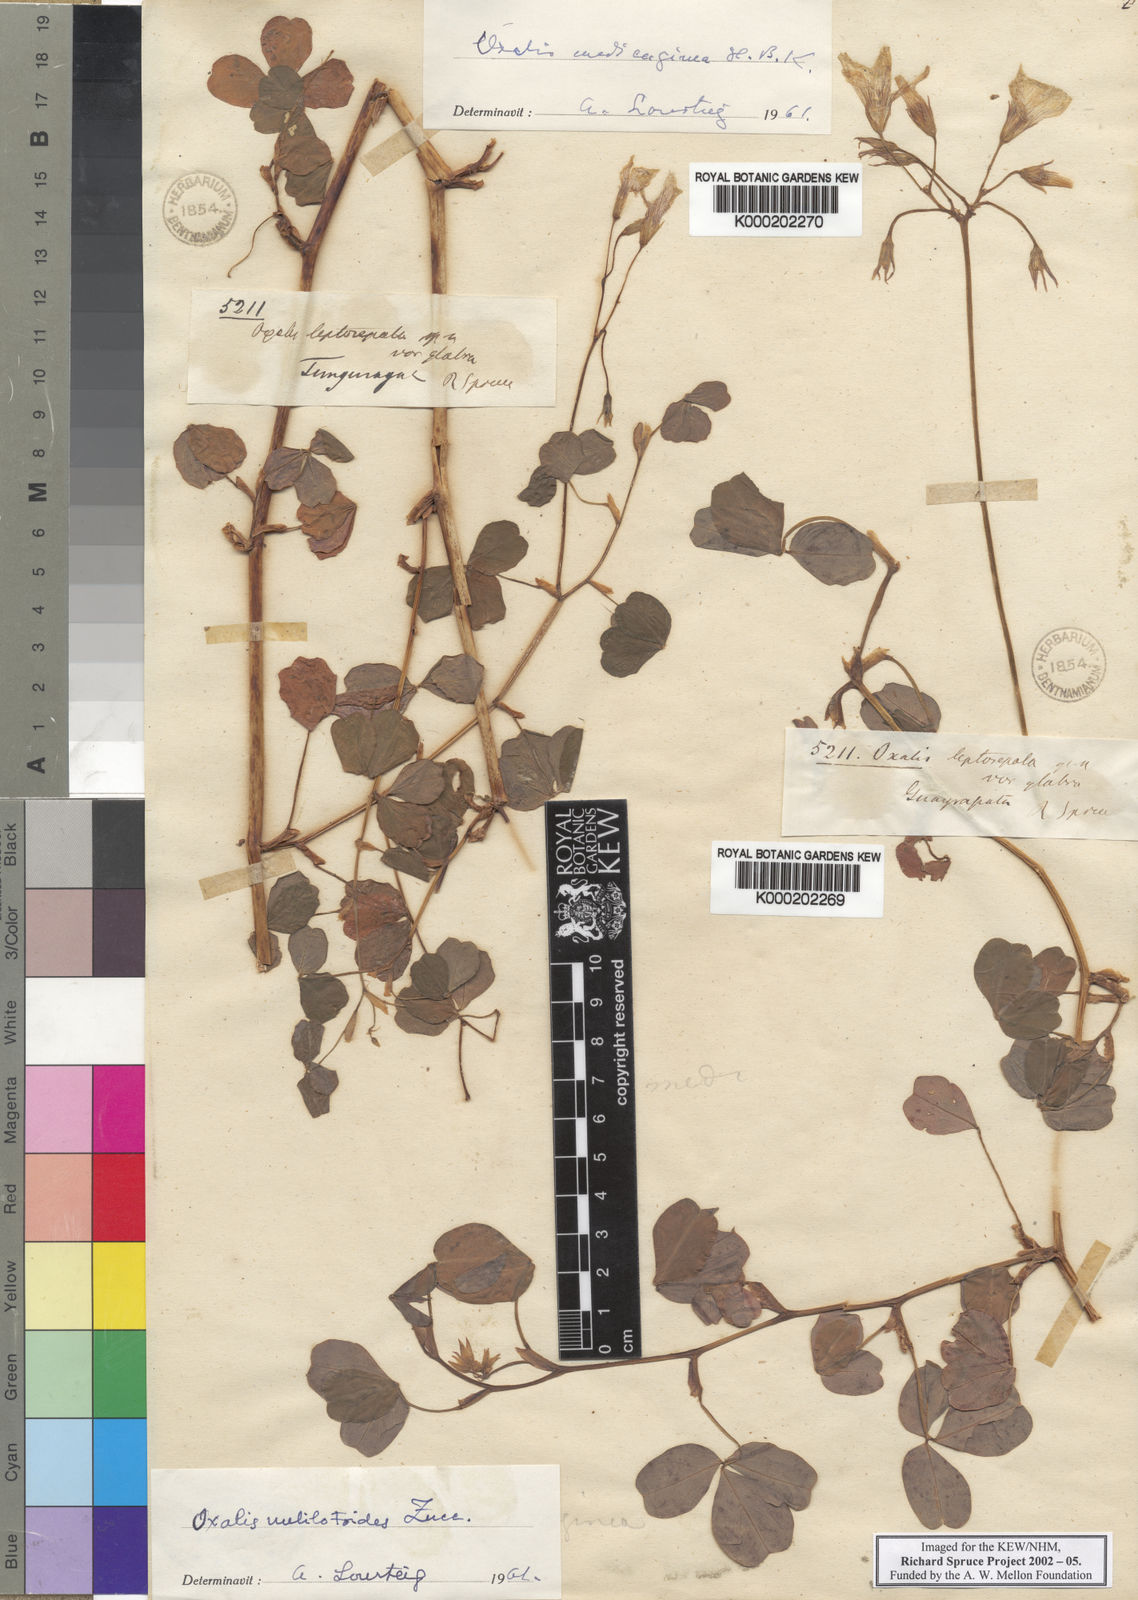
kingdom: Plantae
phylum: Tracheophyta
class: Magnoliopsida
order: Oxalidales
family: Oxalidaceae
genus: Oxalis
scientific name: Oxalis medicaginea
